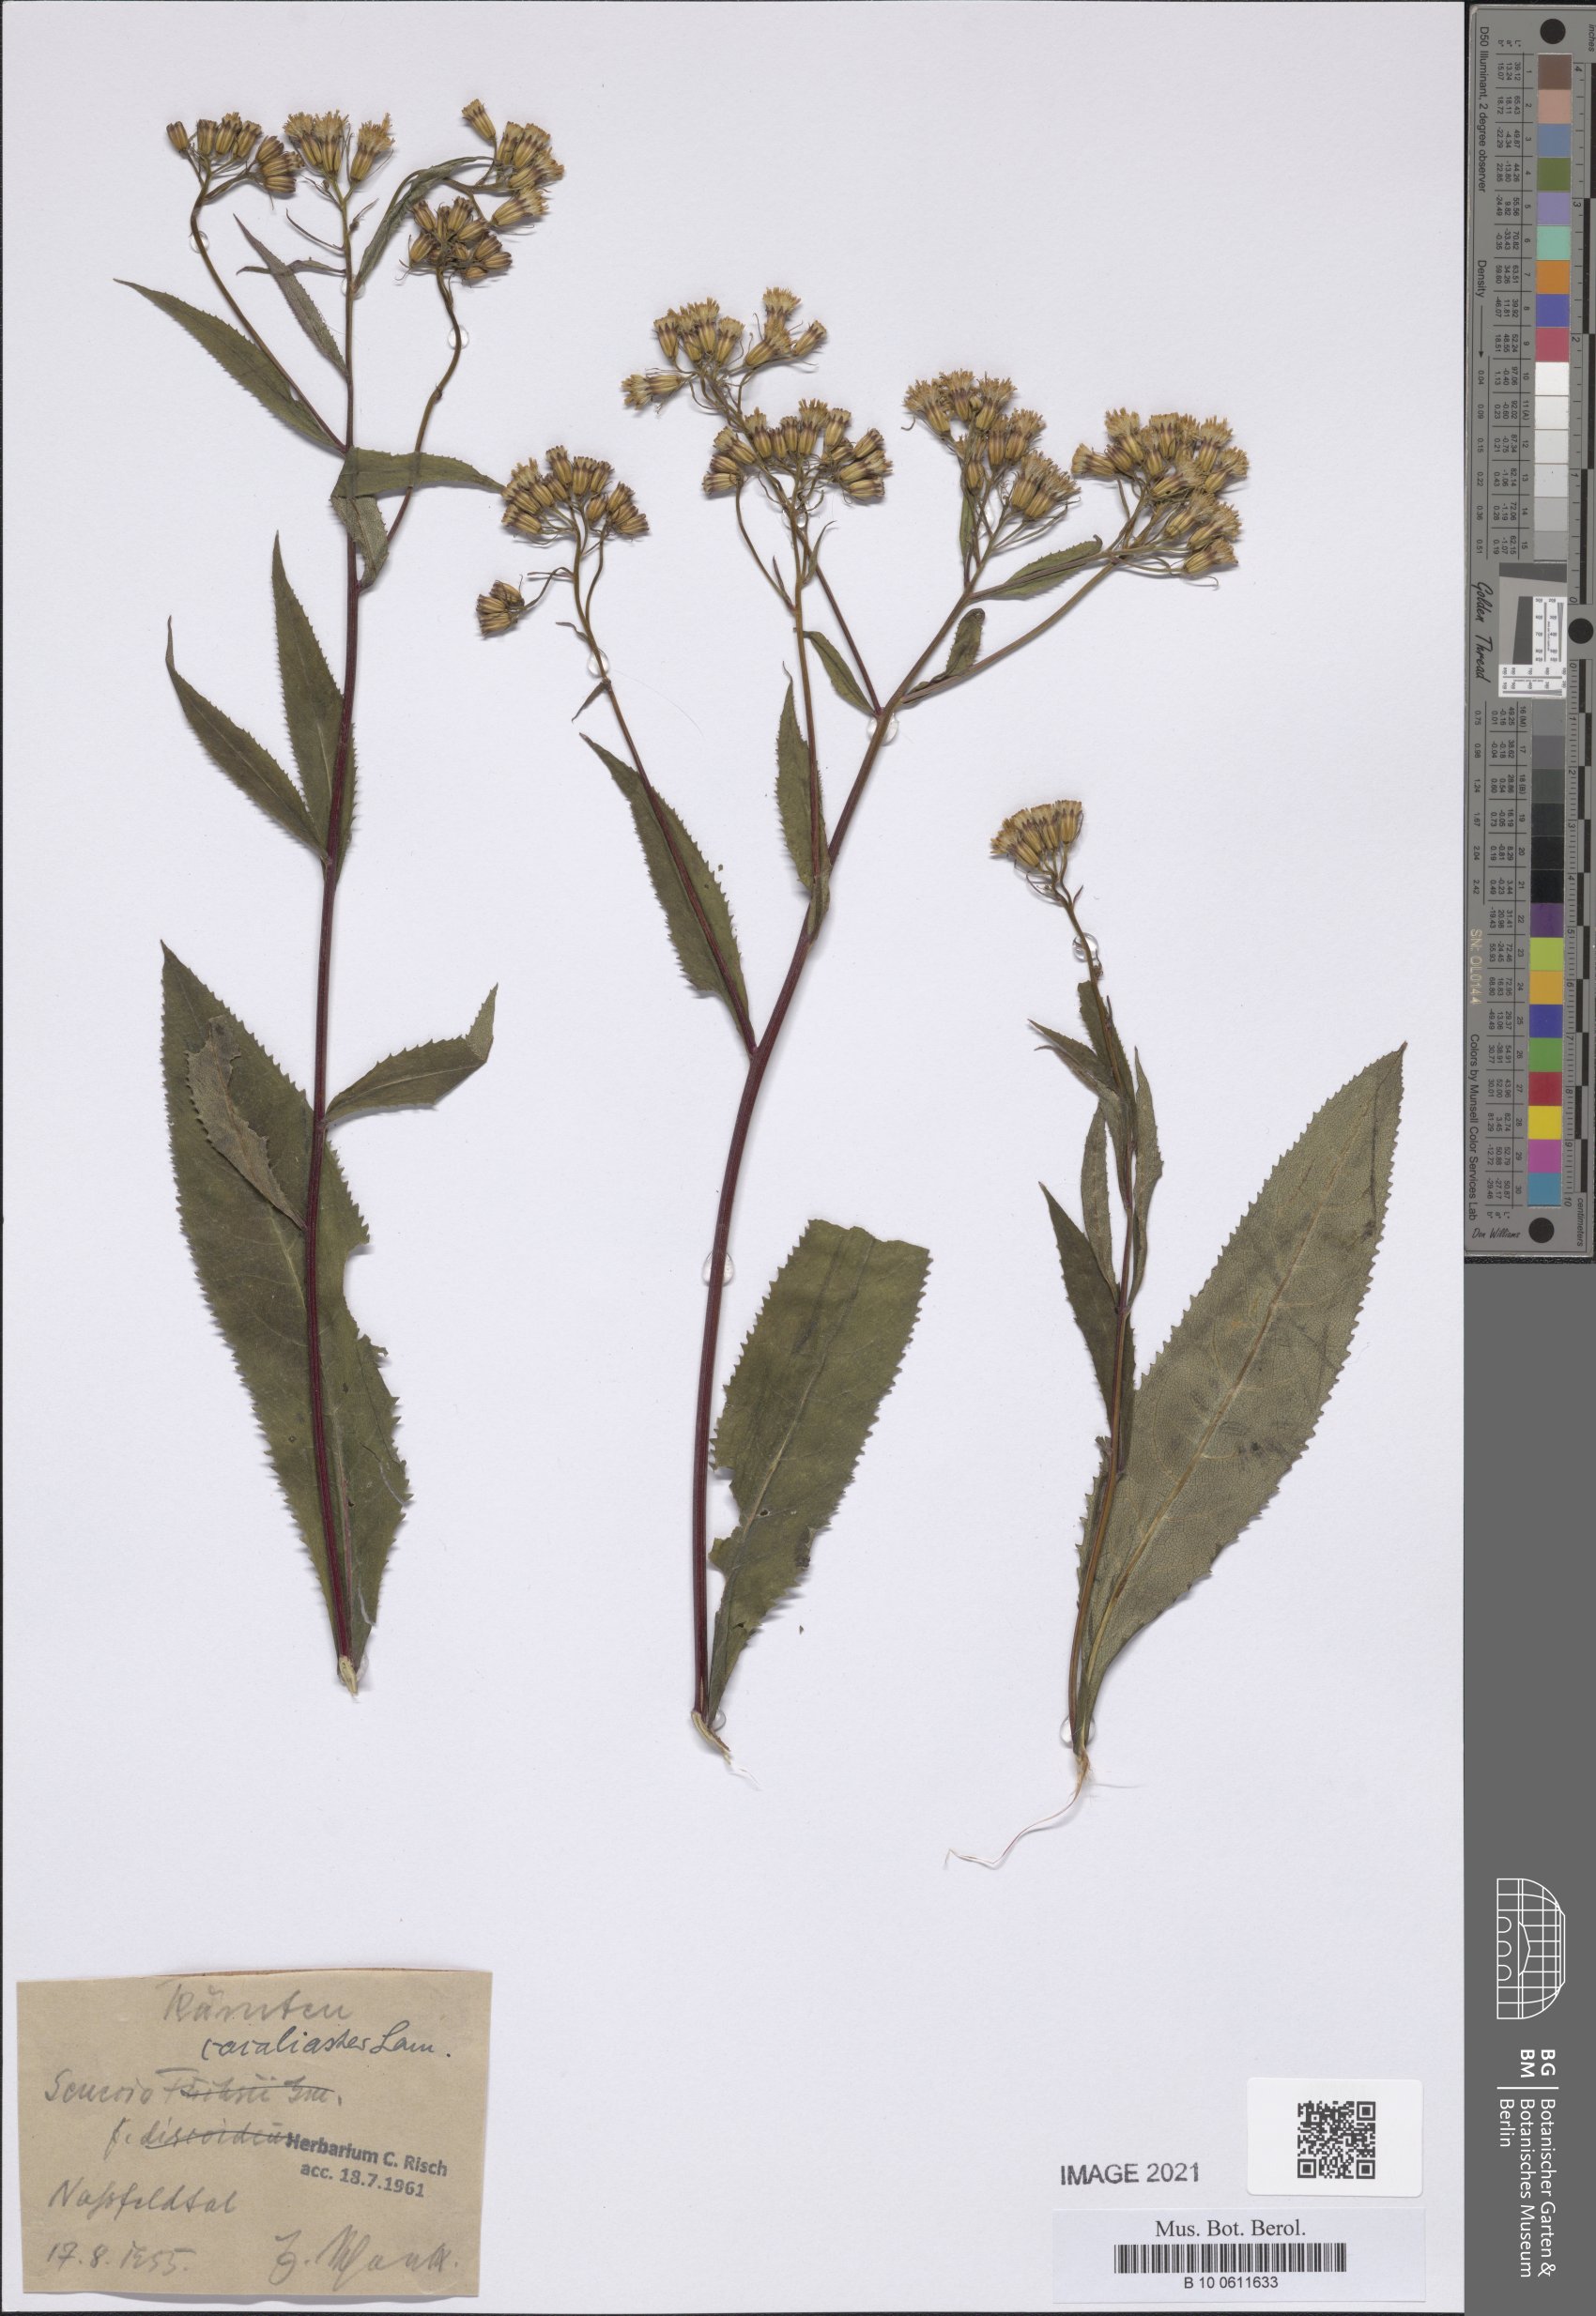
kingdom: Plantae
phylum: Tracheophyta
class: Magnoliopsida
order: Asterales
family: Asteraceae
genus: Senecio
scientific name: Senecio cacaliaster
